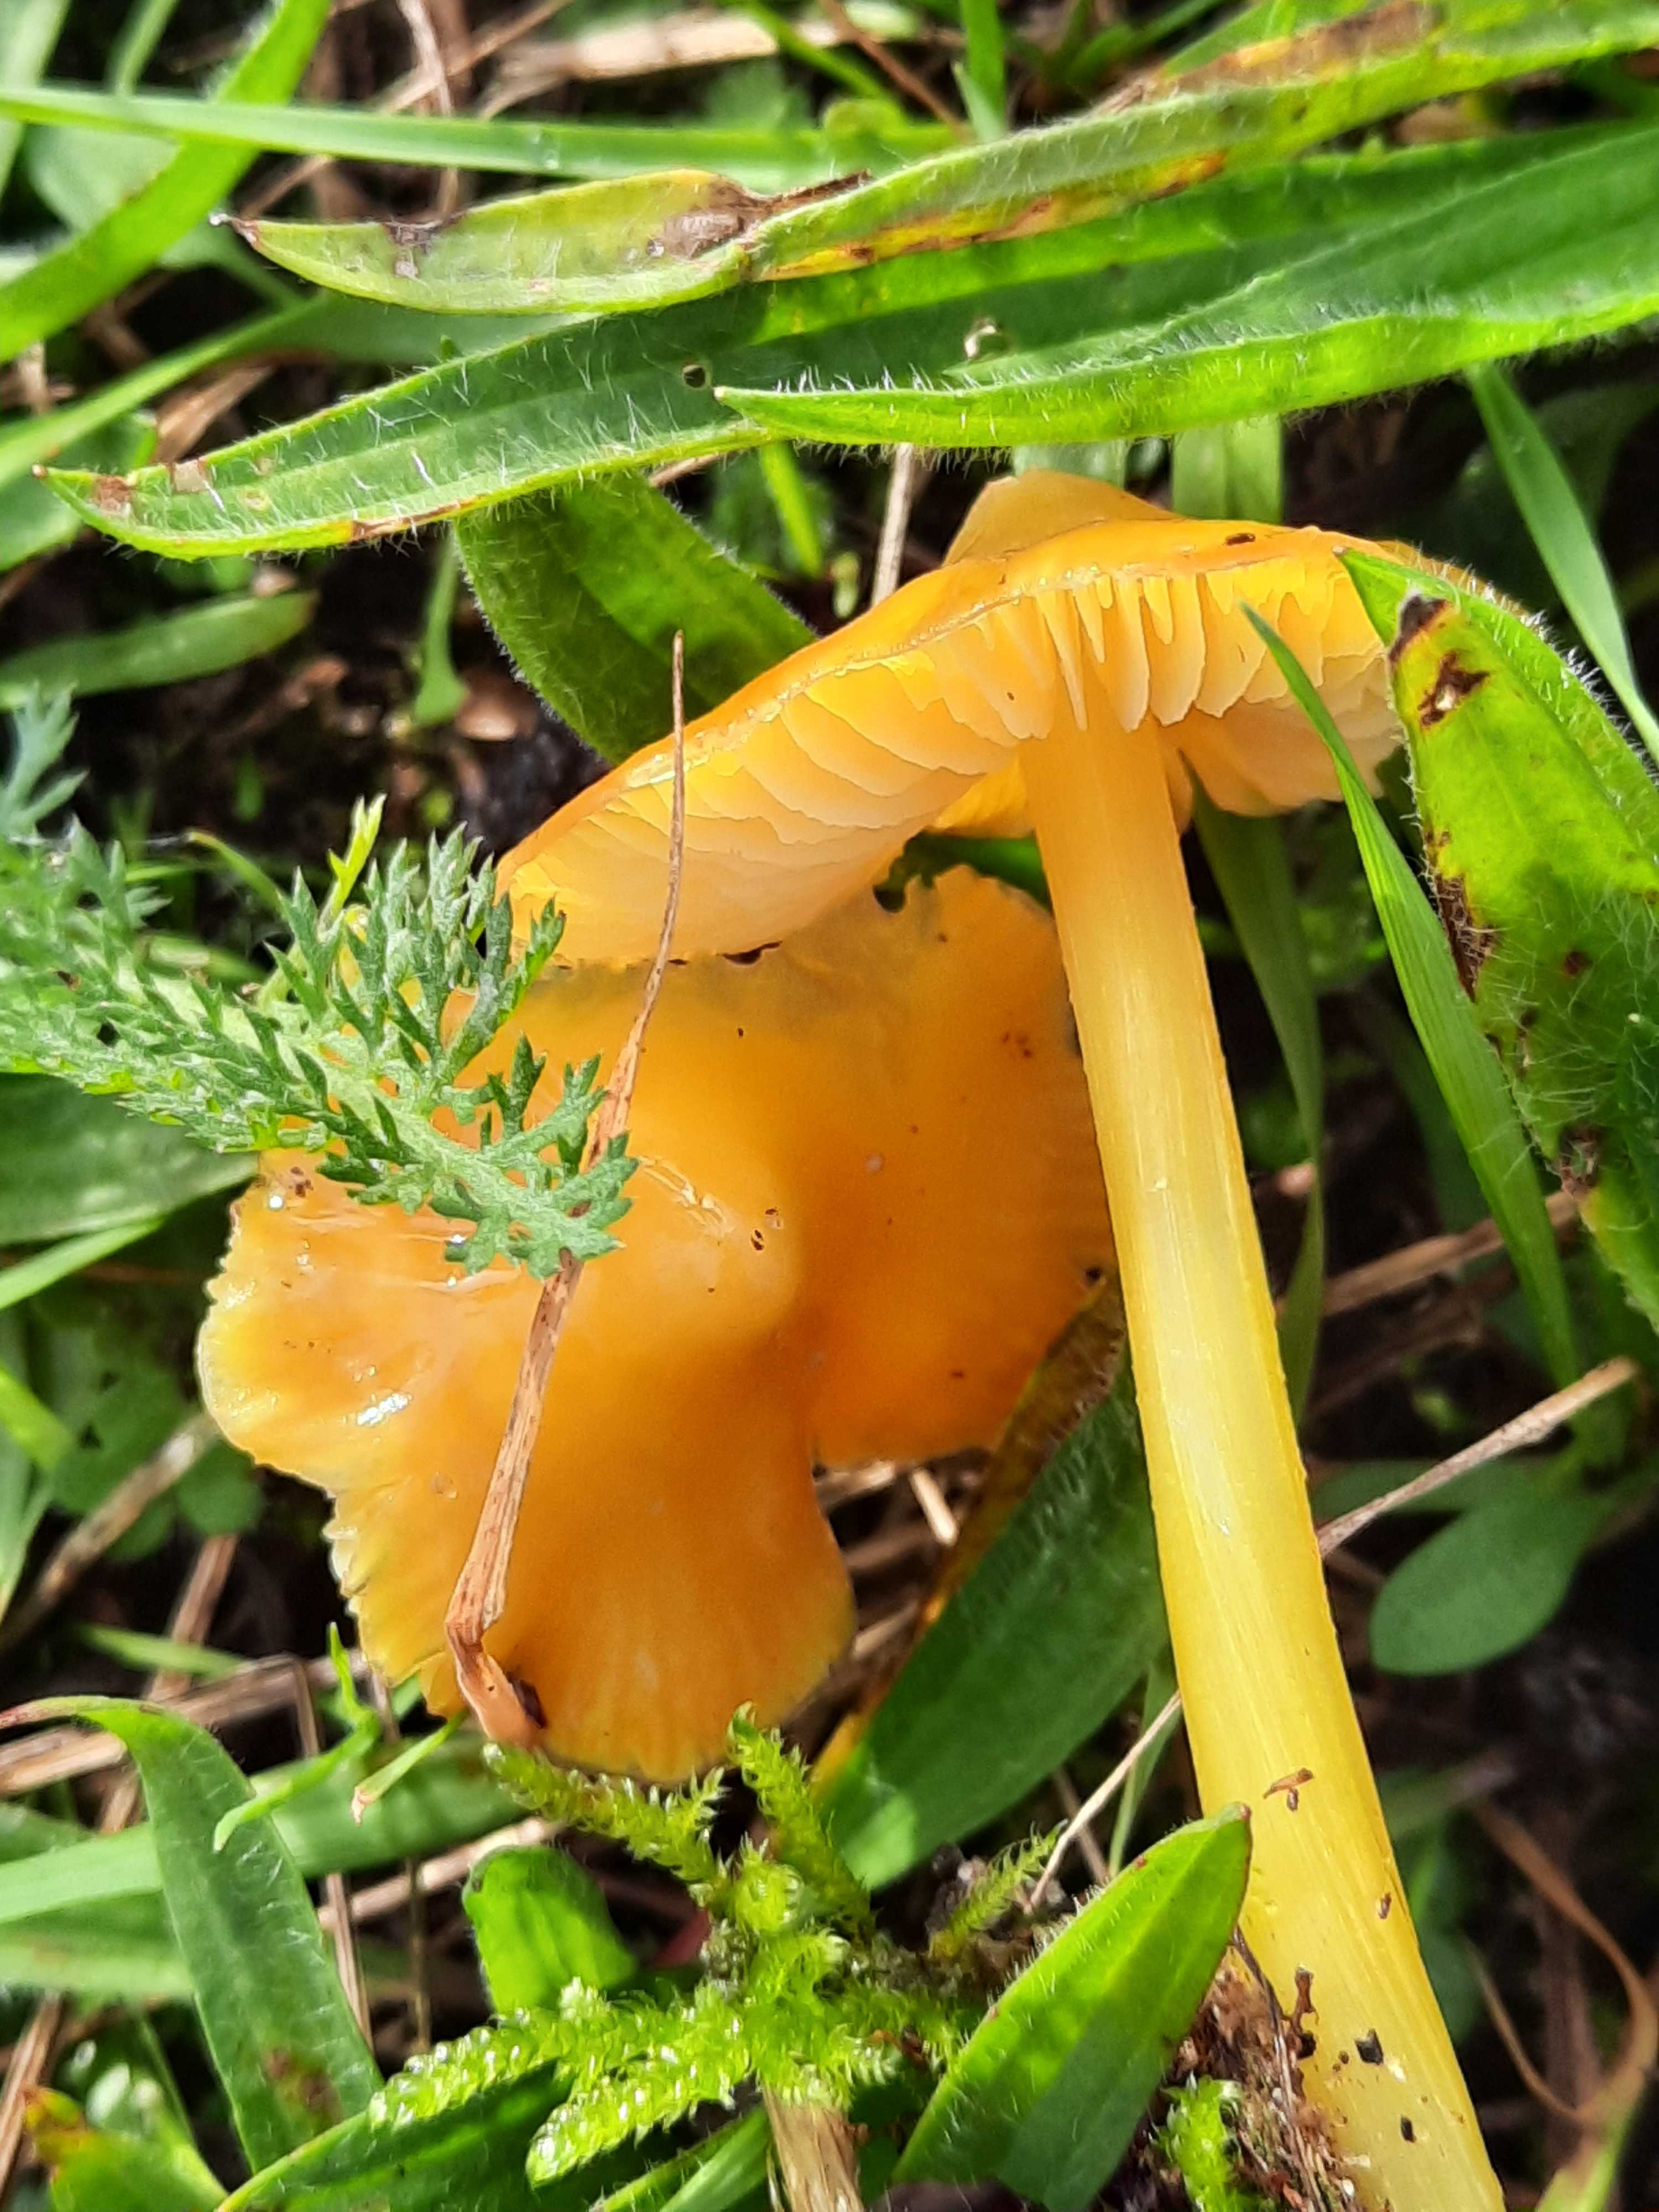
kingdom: Fungi
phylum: Basidiomycota
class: Agaricomycetes
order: Agaricales
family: Hygrophoraceae
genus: Hygrocybe
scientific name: Hygrocybe
